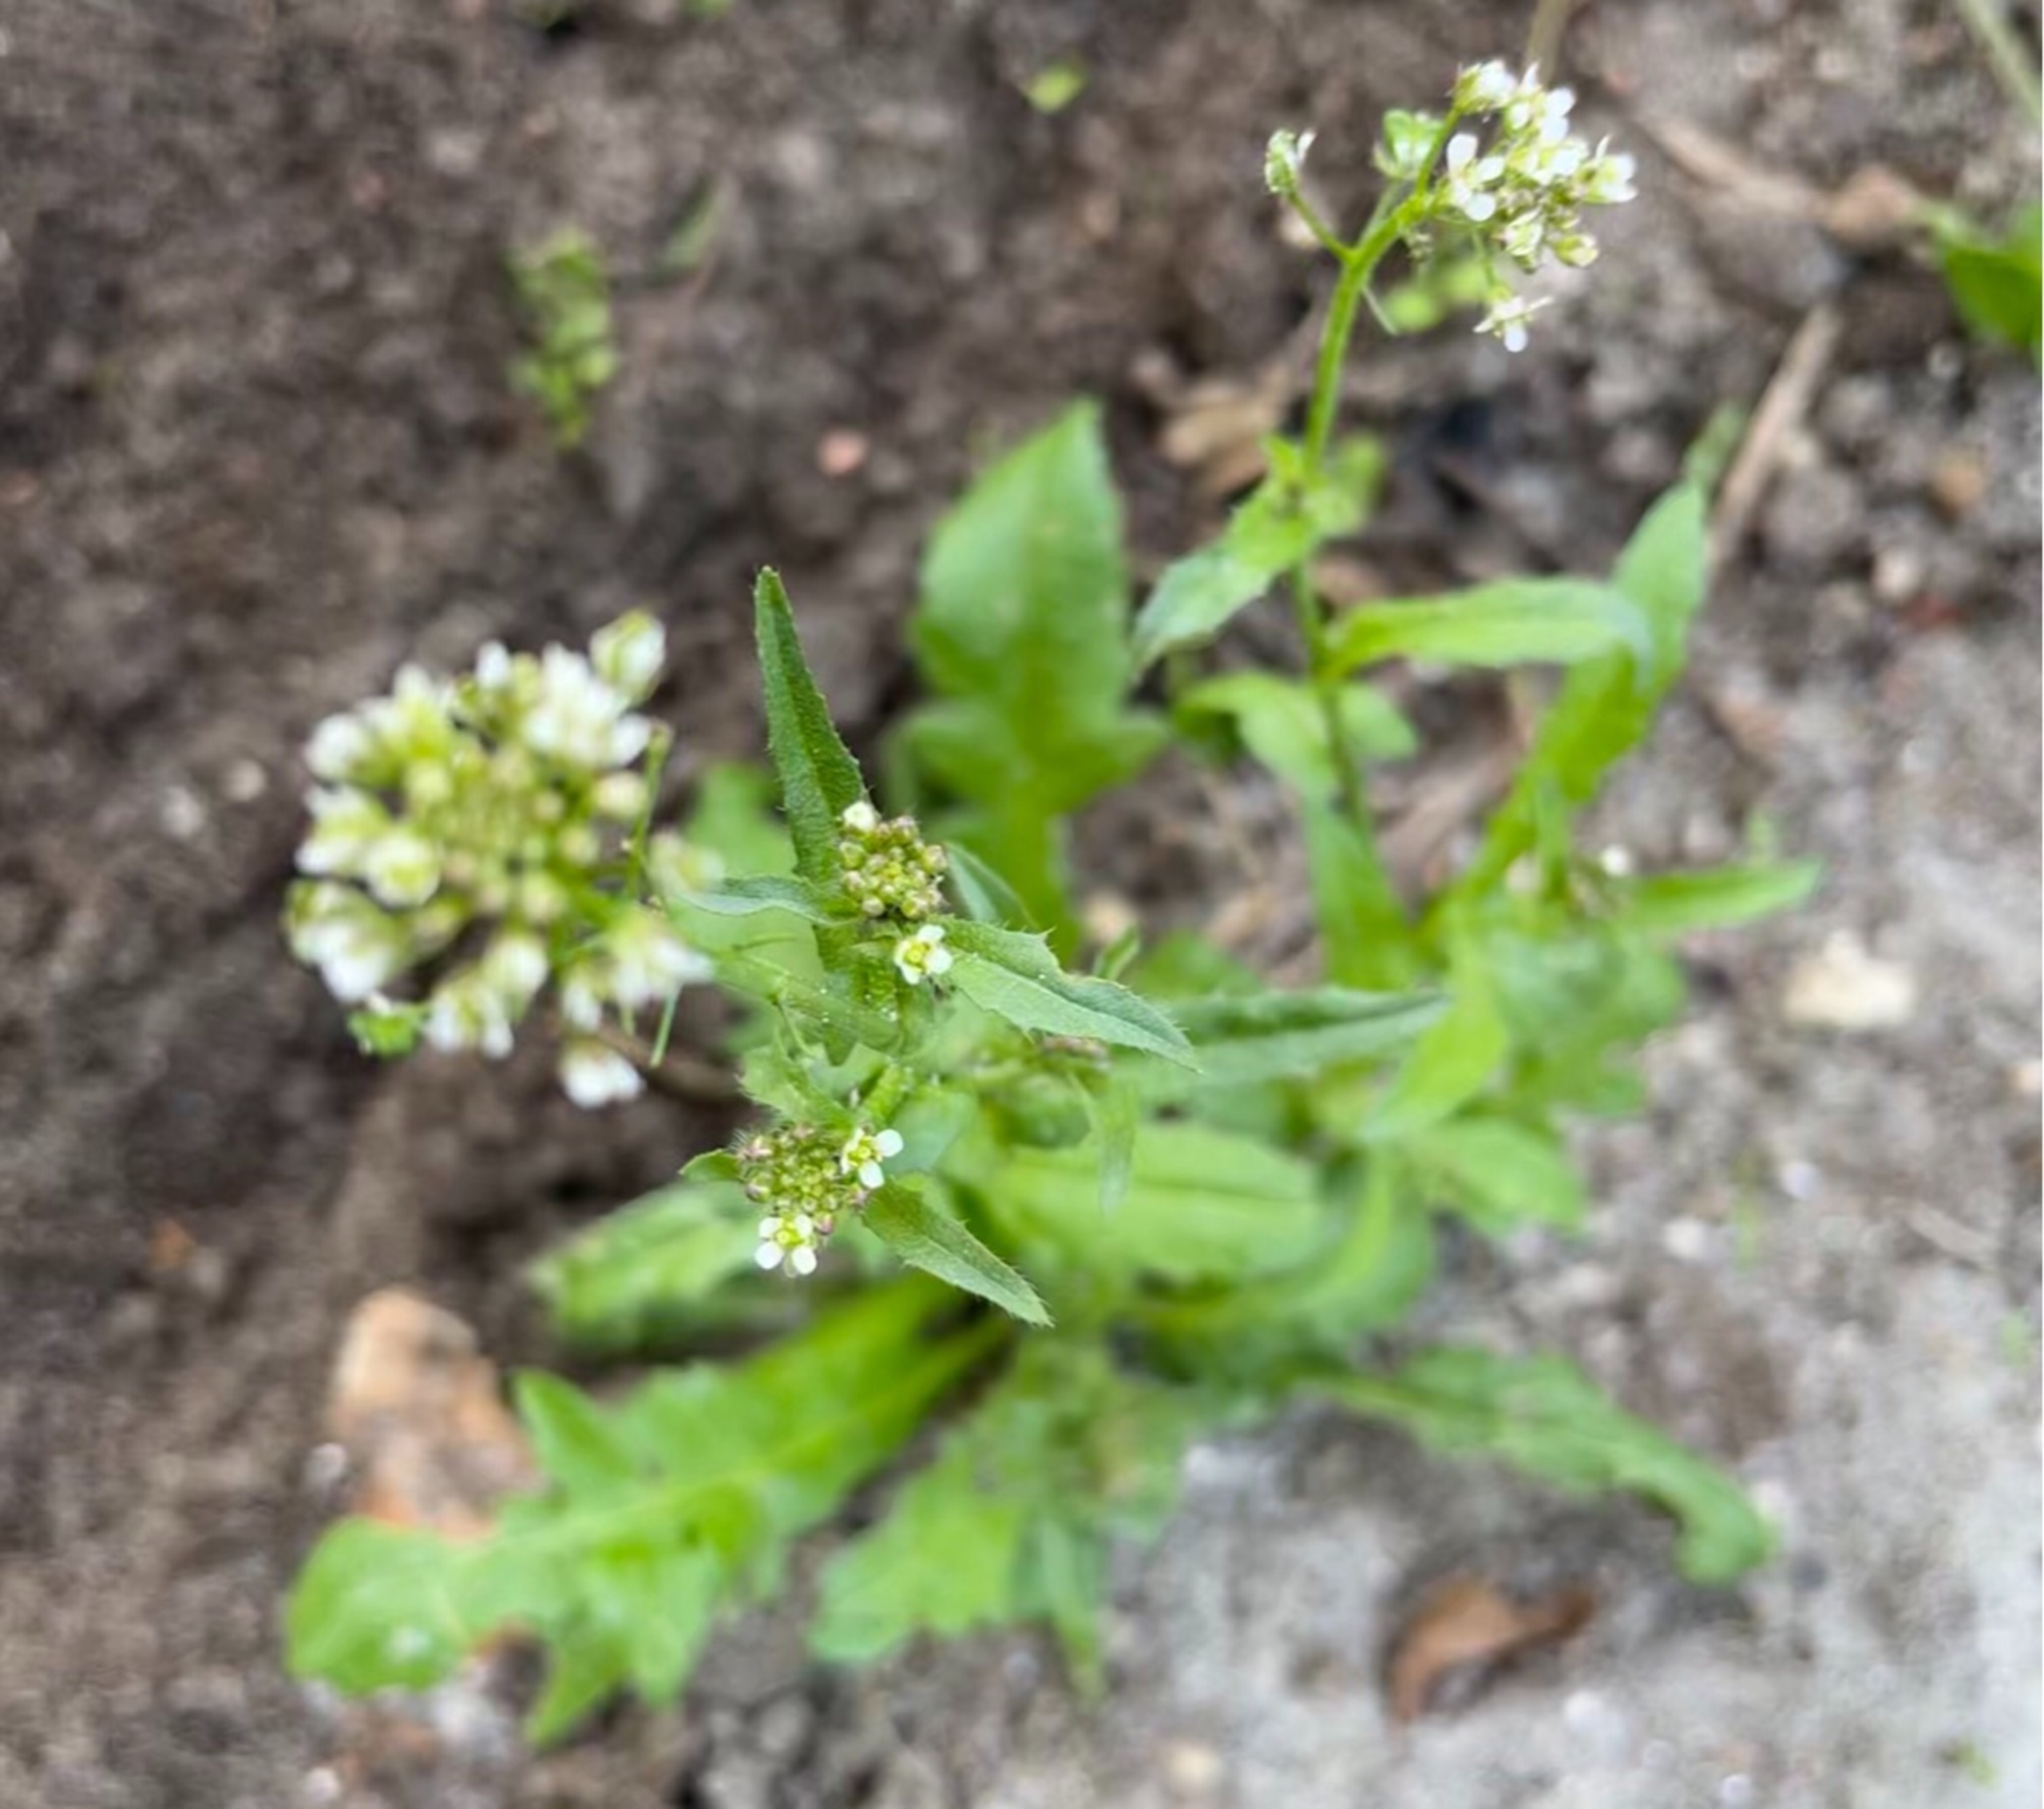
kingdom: Plantae
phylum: Tracheophyta
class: Magnoliopsida
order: Brassicales
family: Brassicaceae
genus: Capsella
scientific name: Capsella bursa-pastoris
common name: Hyrdetaske
